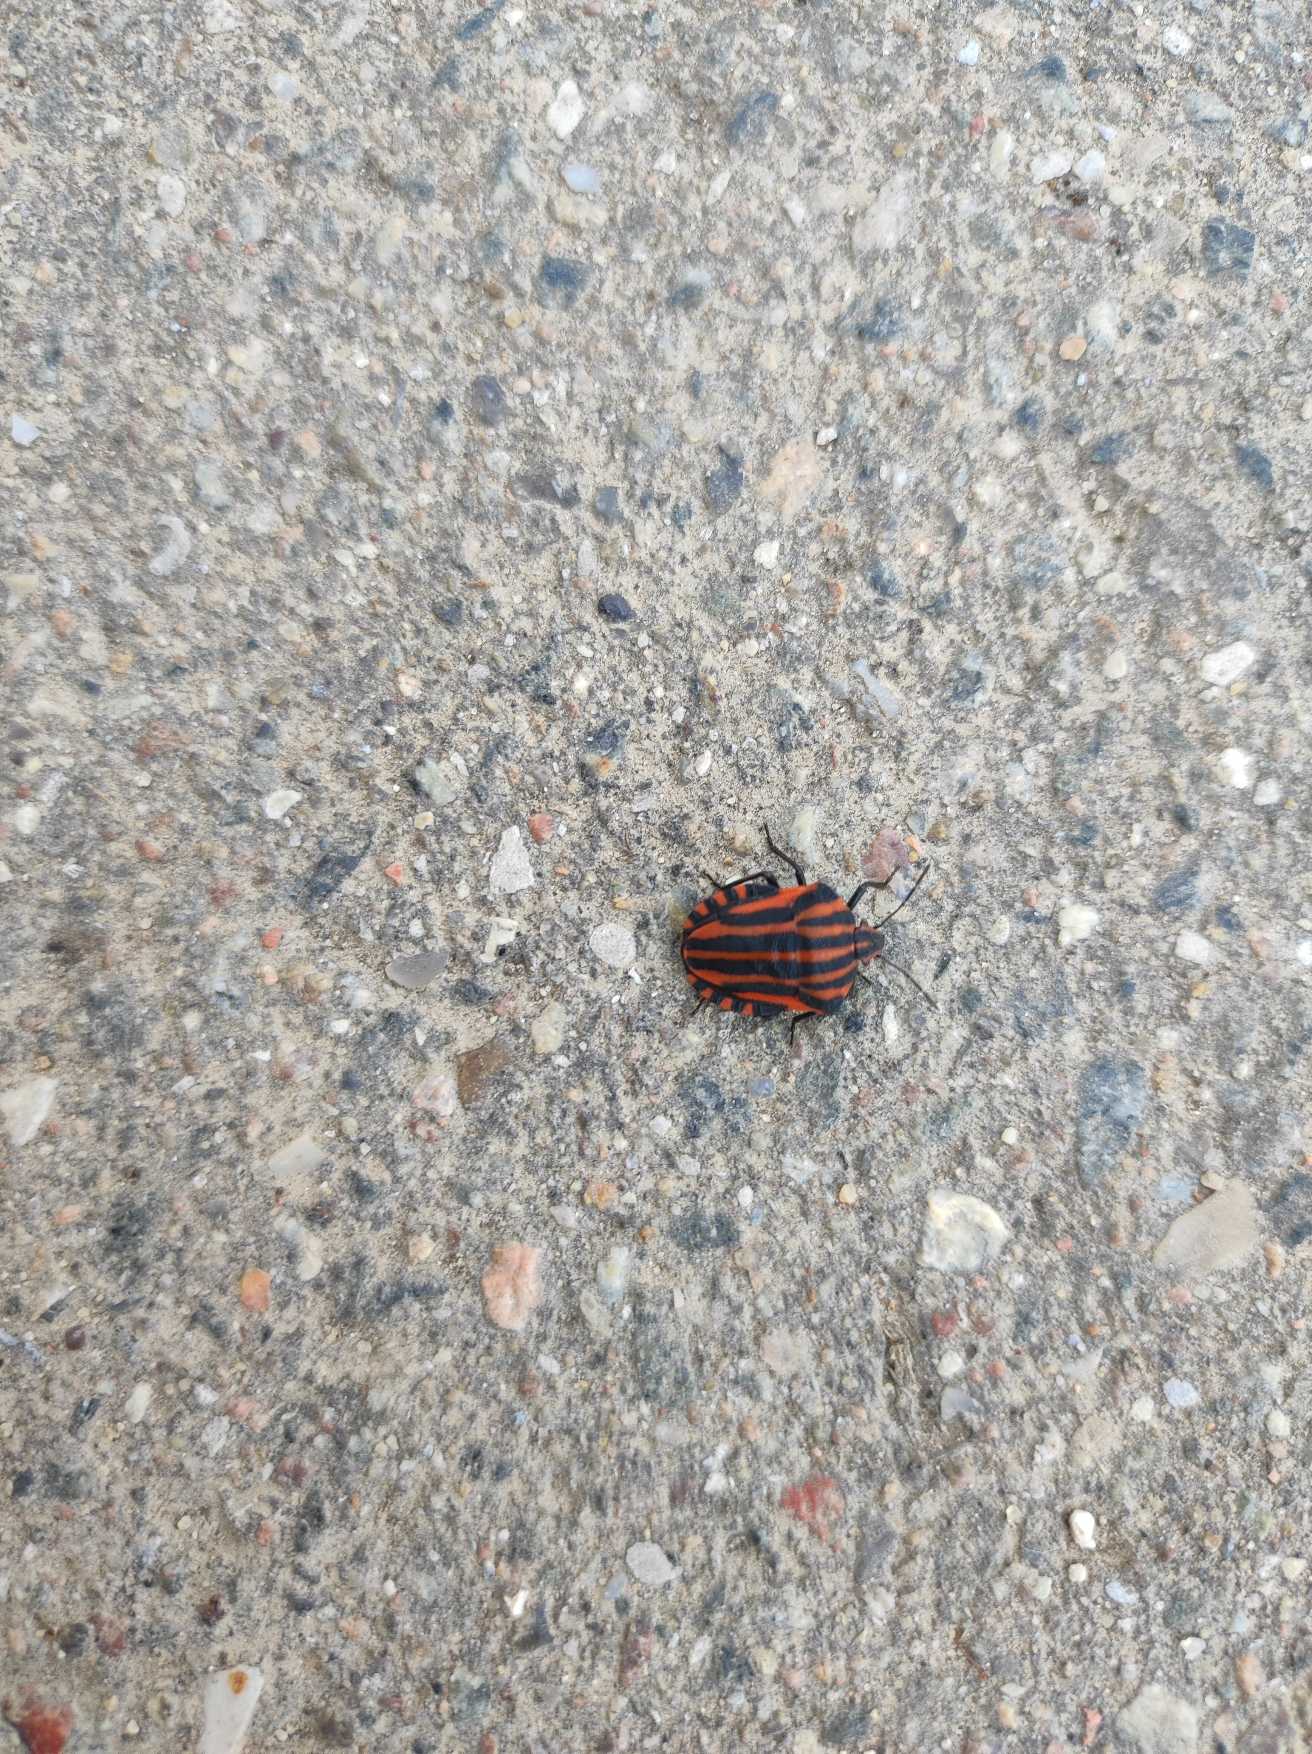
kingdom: Animalia
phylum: Arthropoda
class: Insecta
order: Hemiptera
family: Pentatomidae
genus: Graphosoma
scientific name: Graphosoma italicum
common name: Stribetæge
